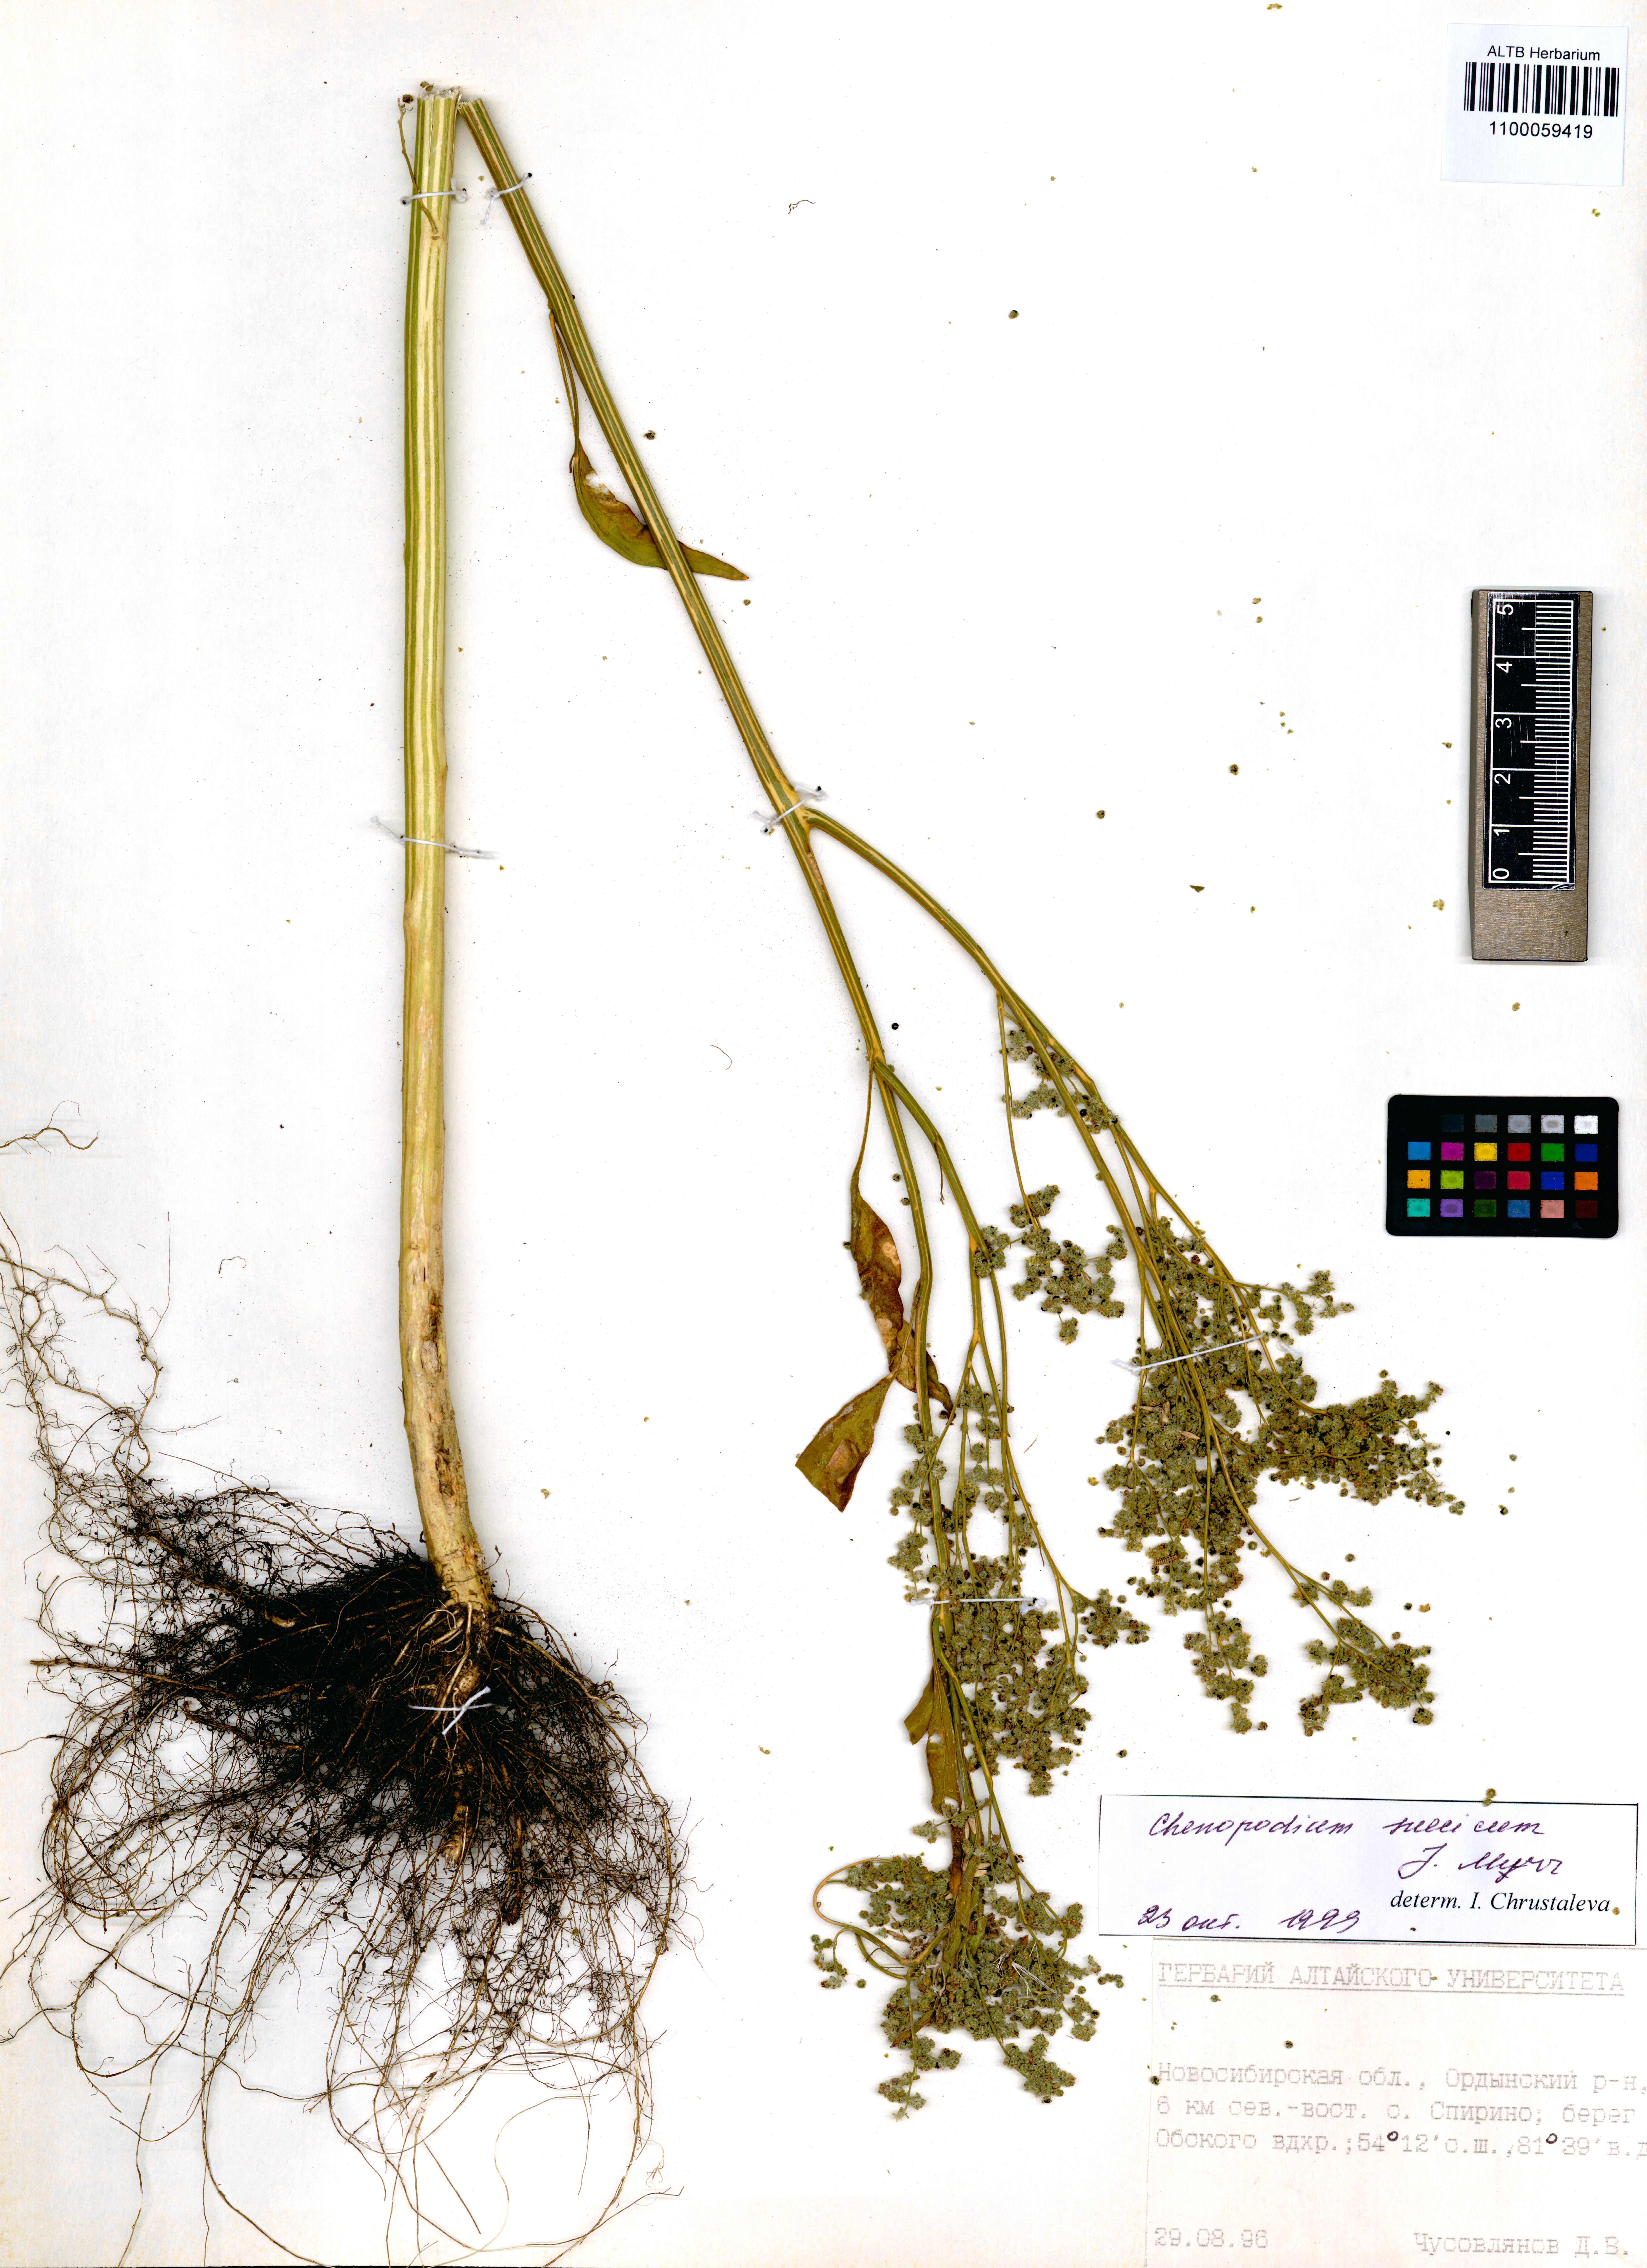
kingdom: Plantae
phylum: Tracheophyta
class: Magnoliopsida
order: Caryophyllales
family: Amaranthaceae
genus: Chenopodium
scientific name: Chenopodium suecicum
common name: Swedish goosefoot
